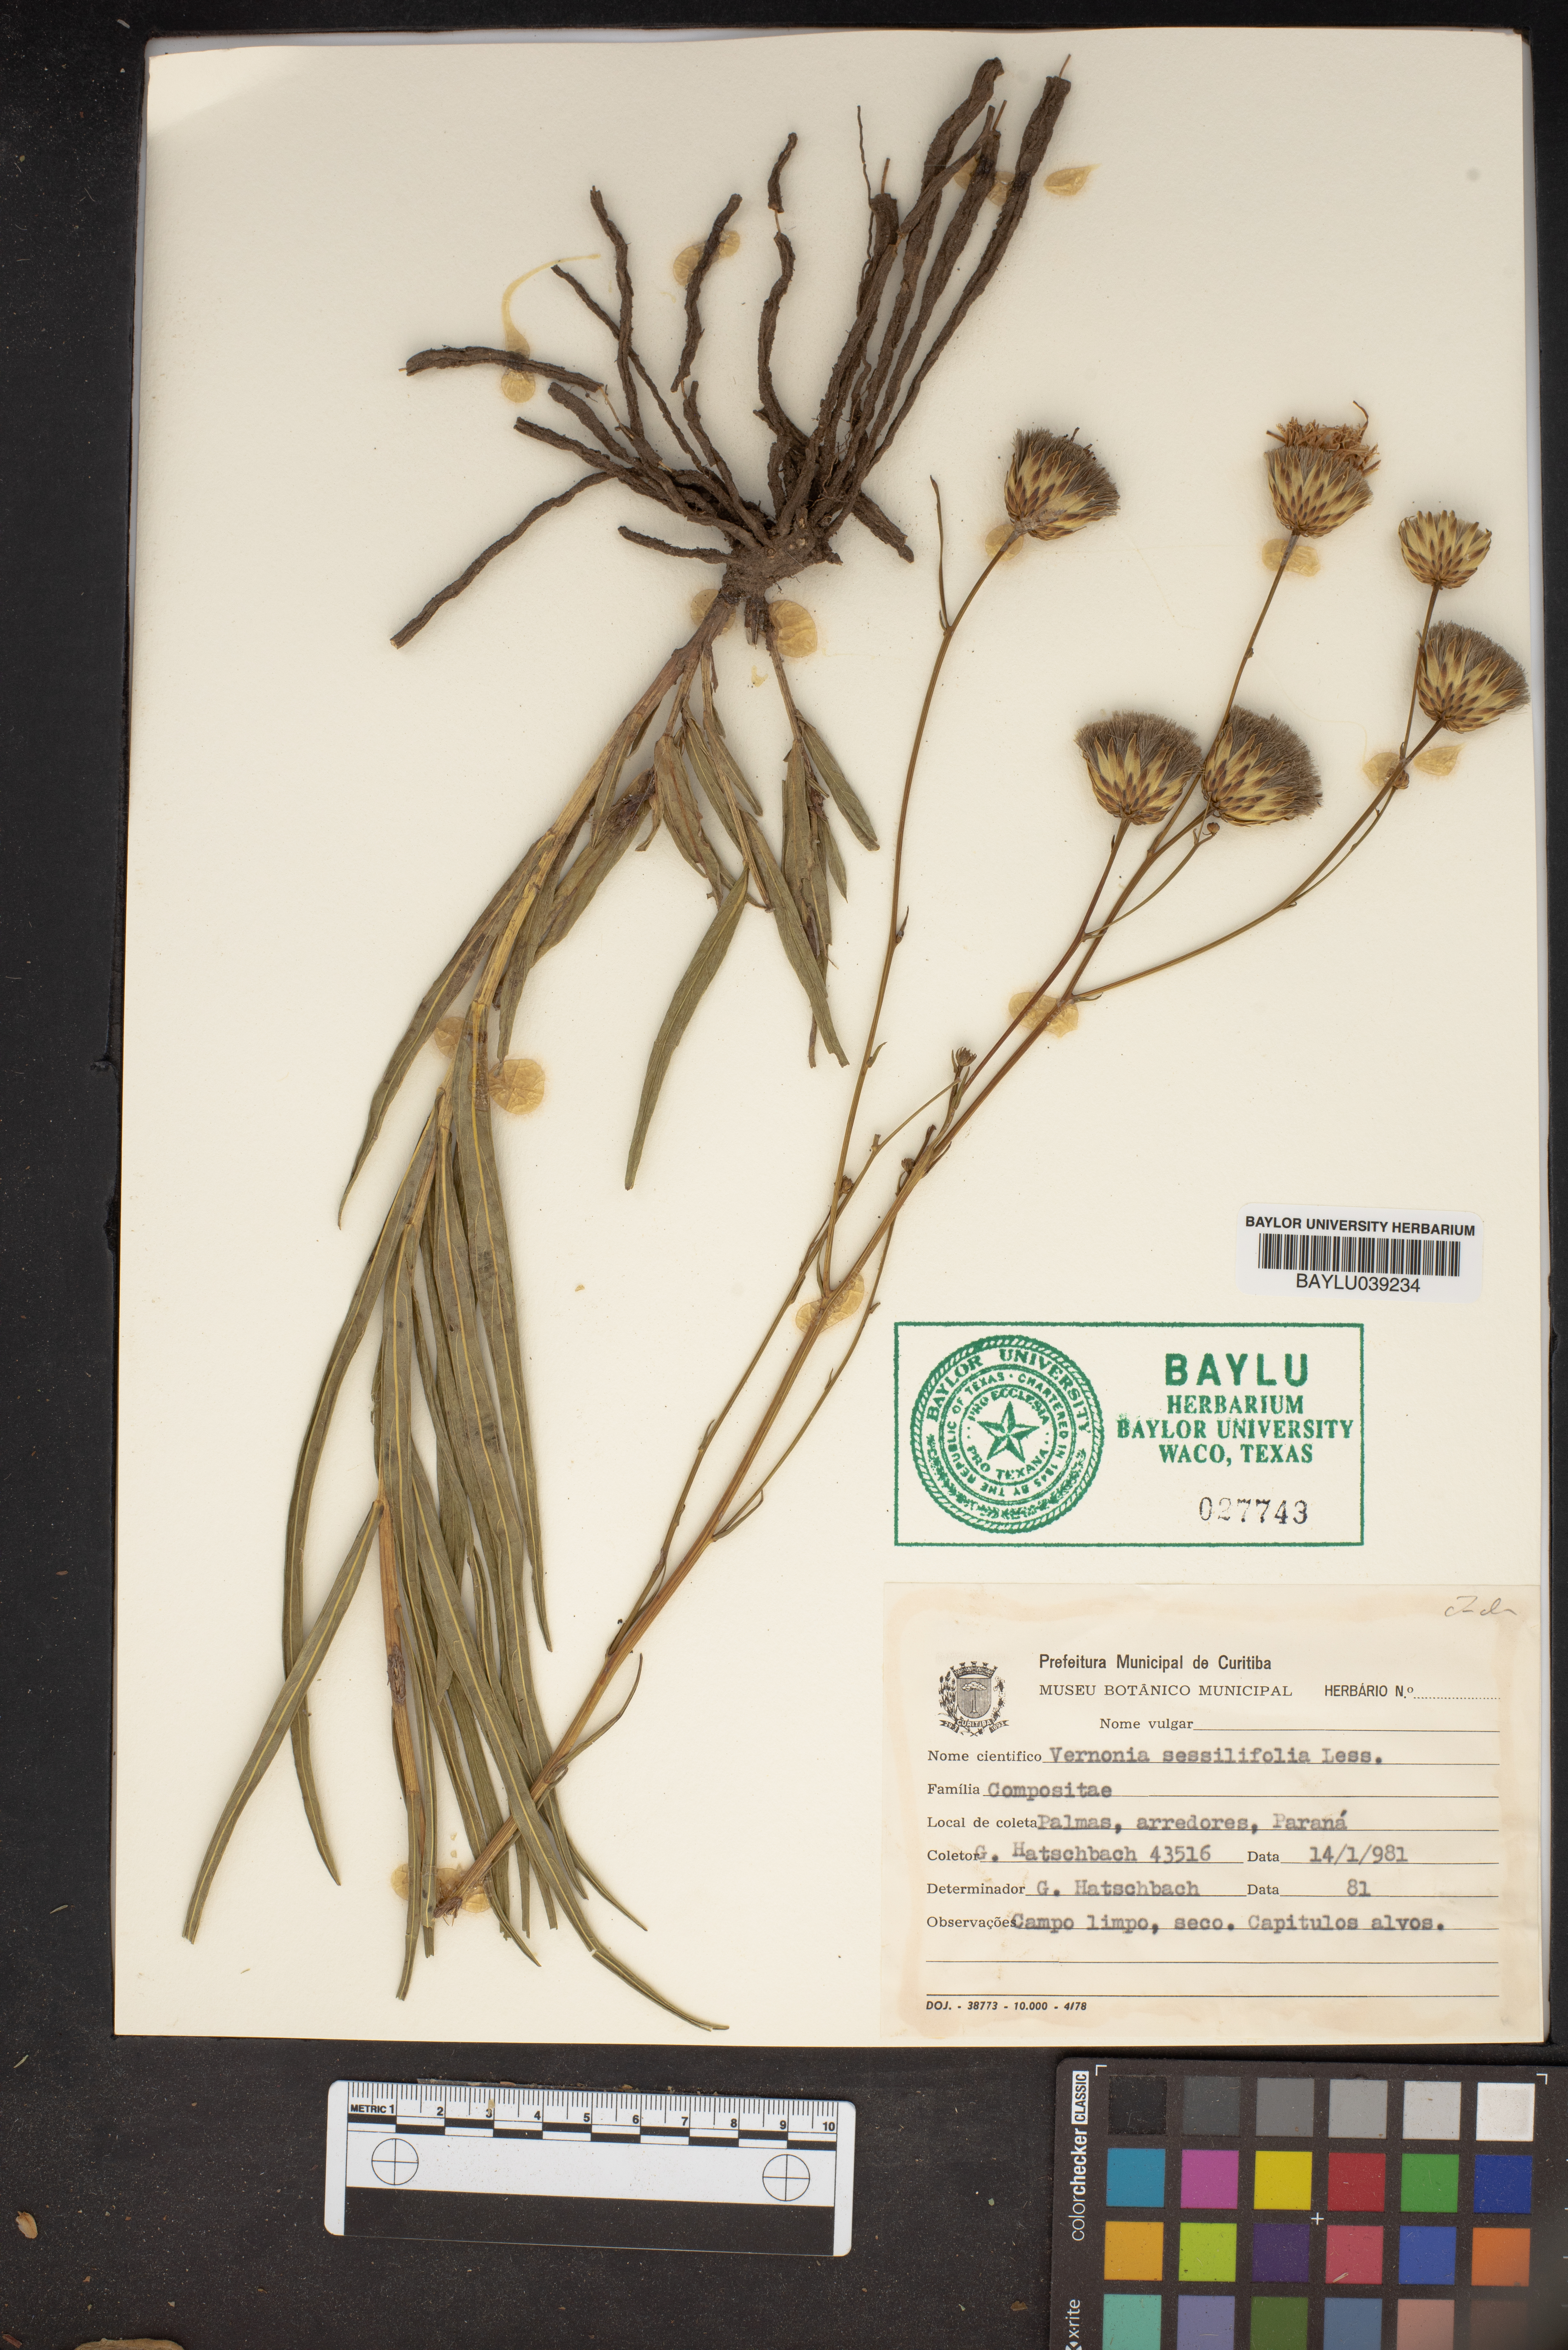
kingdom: Plantae
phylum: Tracheophyta
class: Magnoliopsida
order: Asterales
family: Asteraceae
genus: Lepidaploa
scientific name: Lepidaploa remotiflora
